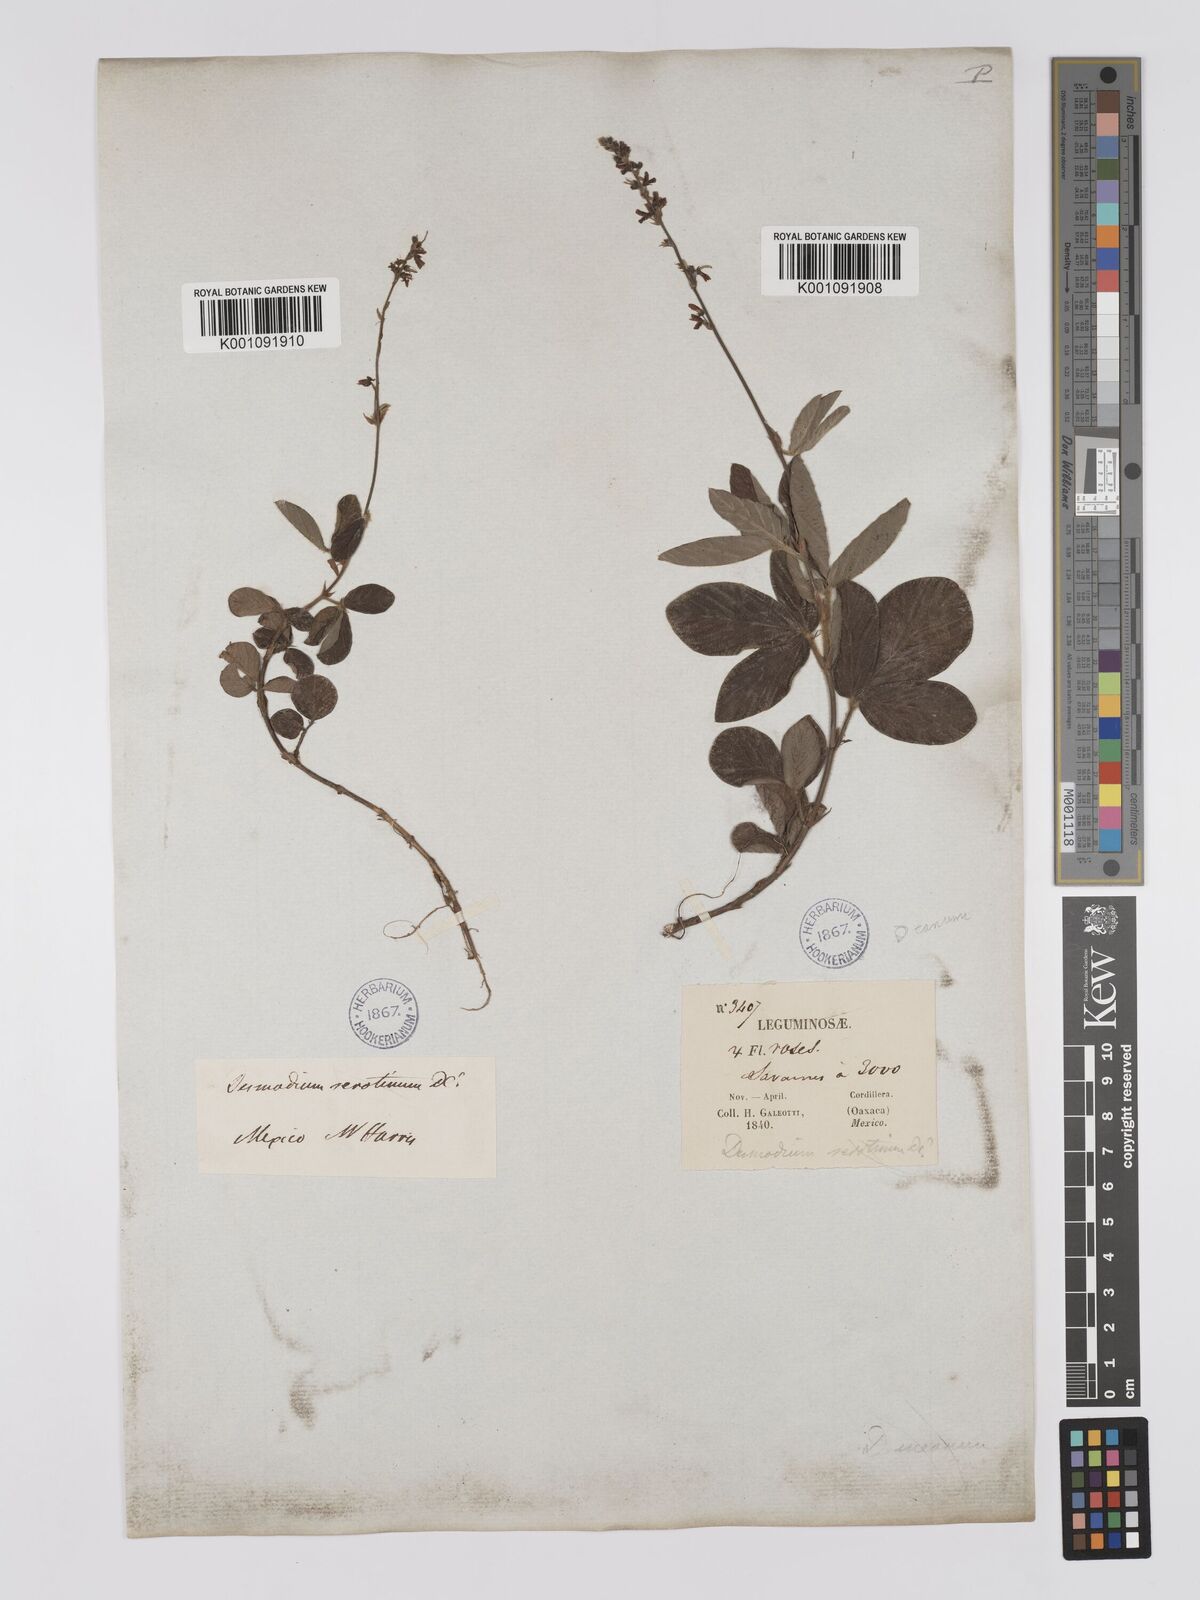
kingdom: Plantae
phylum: Tracheophyta
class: Magnoliopsida
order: Fabales
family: Fabaceae
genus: Desmodium
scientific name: Desmodium incanum
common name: Tickclover
